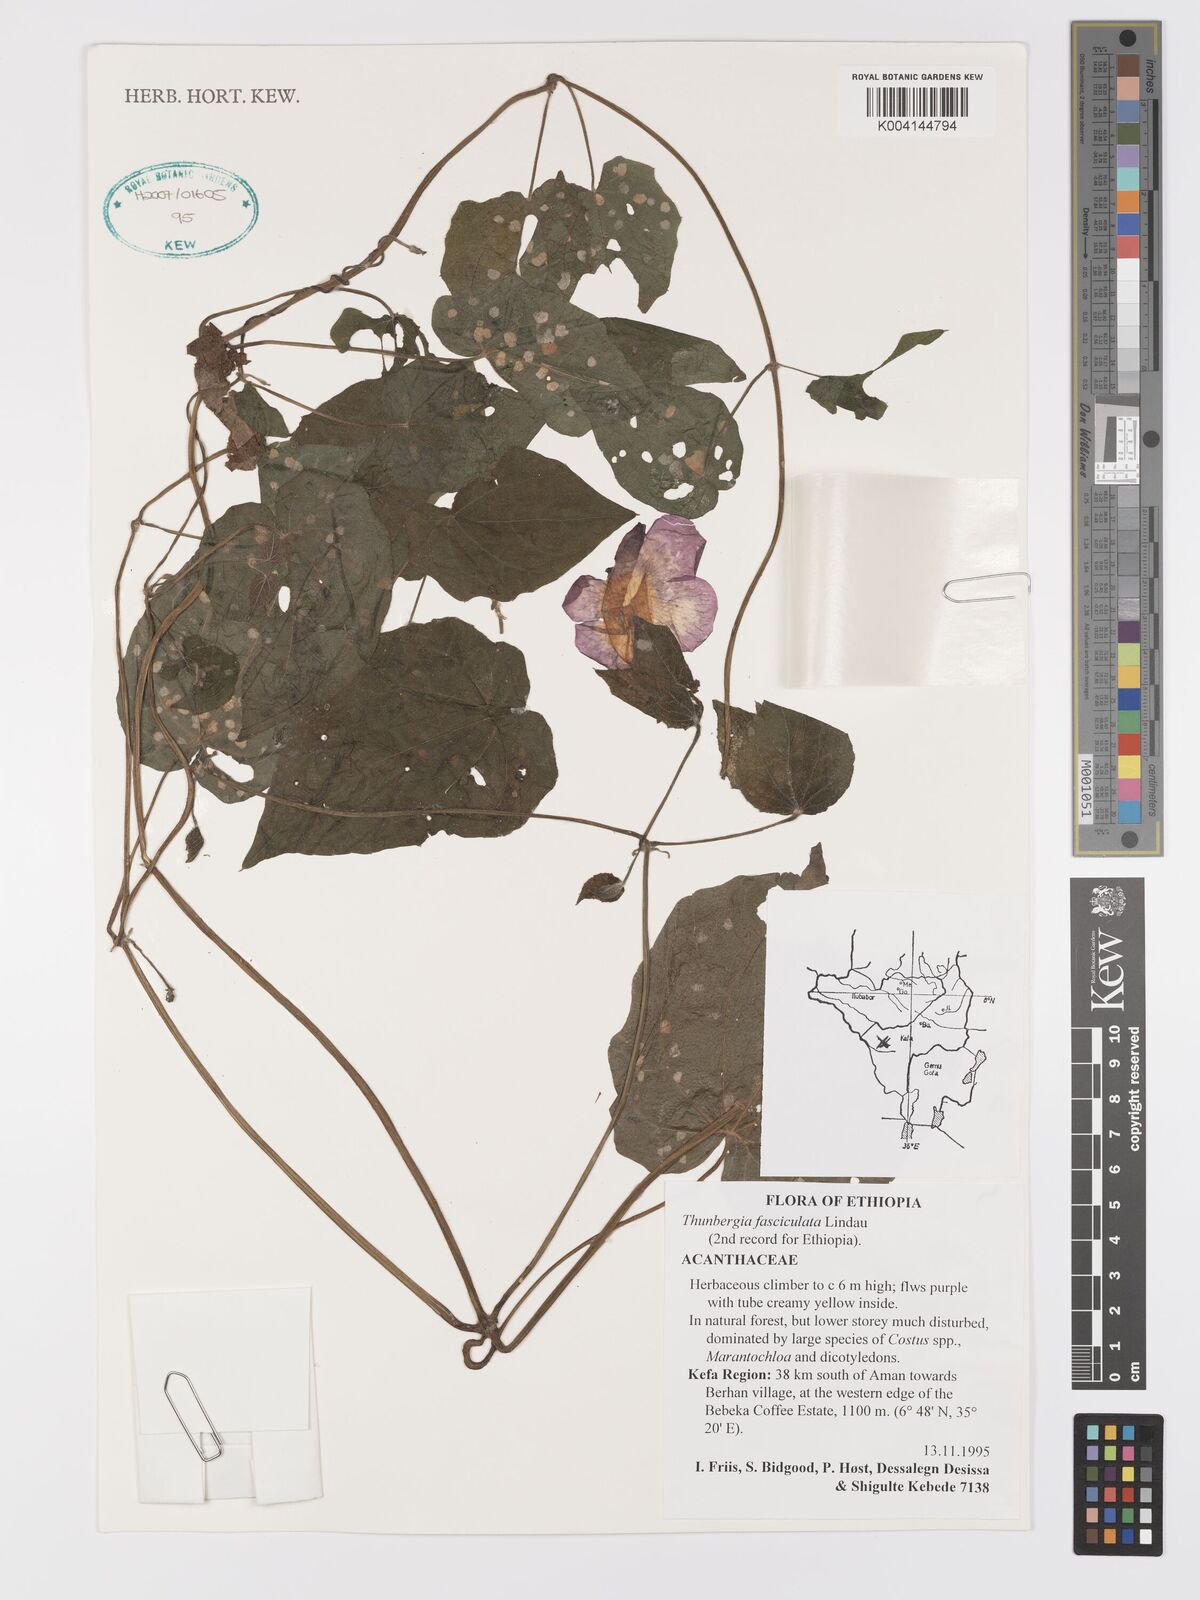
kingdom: Plantae
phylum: Tracheophyta
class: Magnoliopsida
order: Lamiales
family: Acanthaceae
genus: Thunbergia
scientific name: Thunbergia
